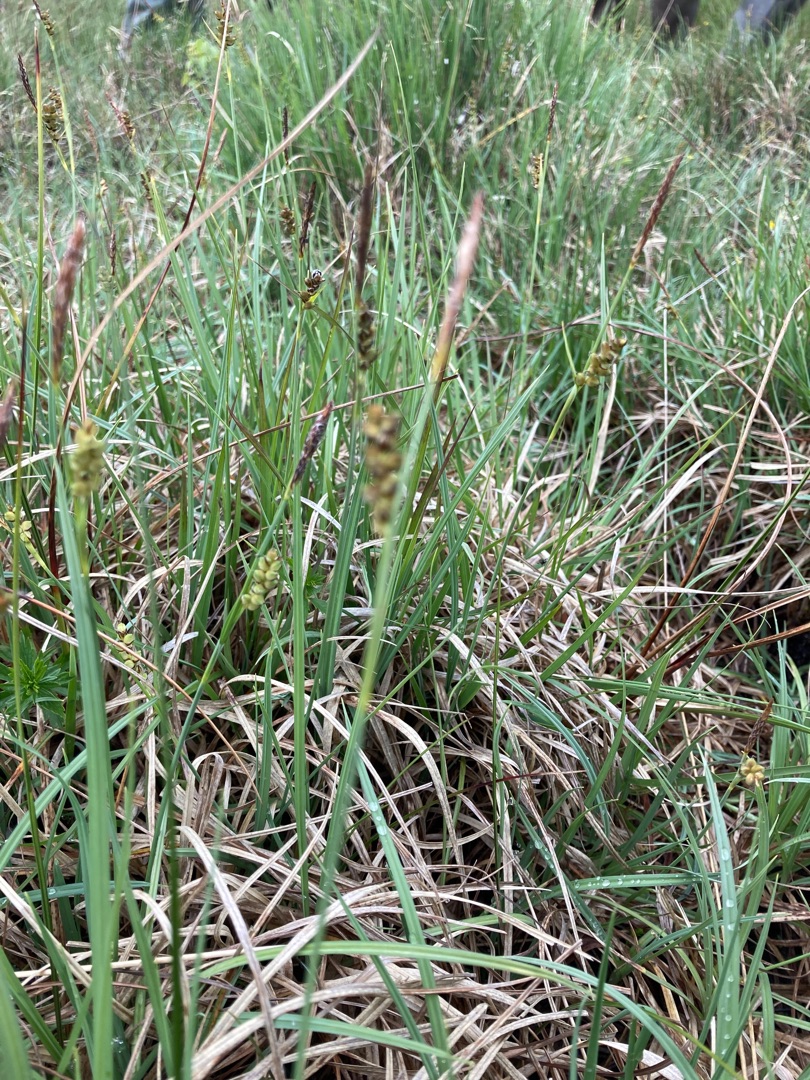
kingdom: Plantae
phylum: Tracheophyta
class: Liliopsida
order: Poales
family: Cyperaceae
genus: Carex
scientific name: Carex panicea
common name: Hirse-star
